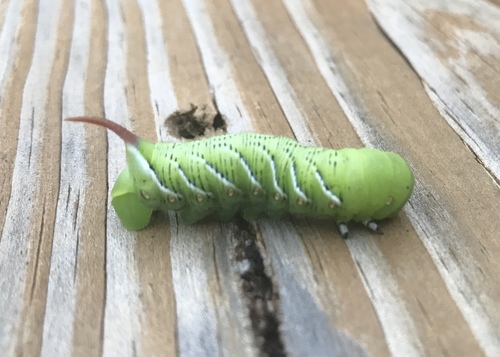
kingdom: Animalia
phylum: Arthropoda
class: Insecta
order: Lepidoptera
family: Sphingidae
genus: Manduca
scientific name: Manduca sexta
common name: Carolina sphinx
